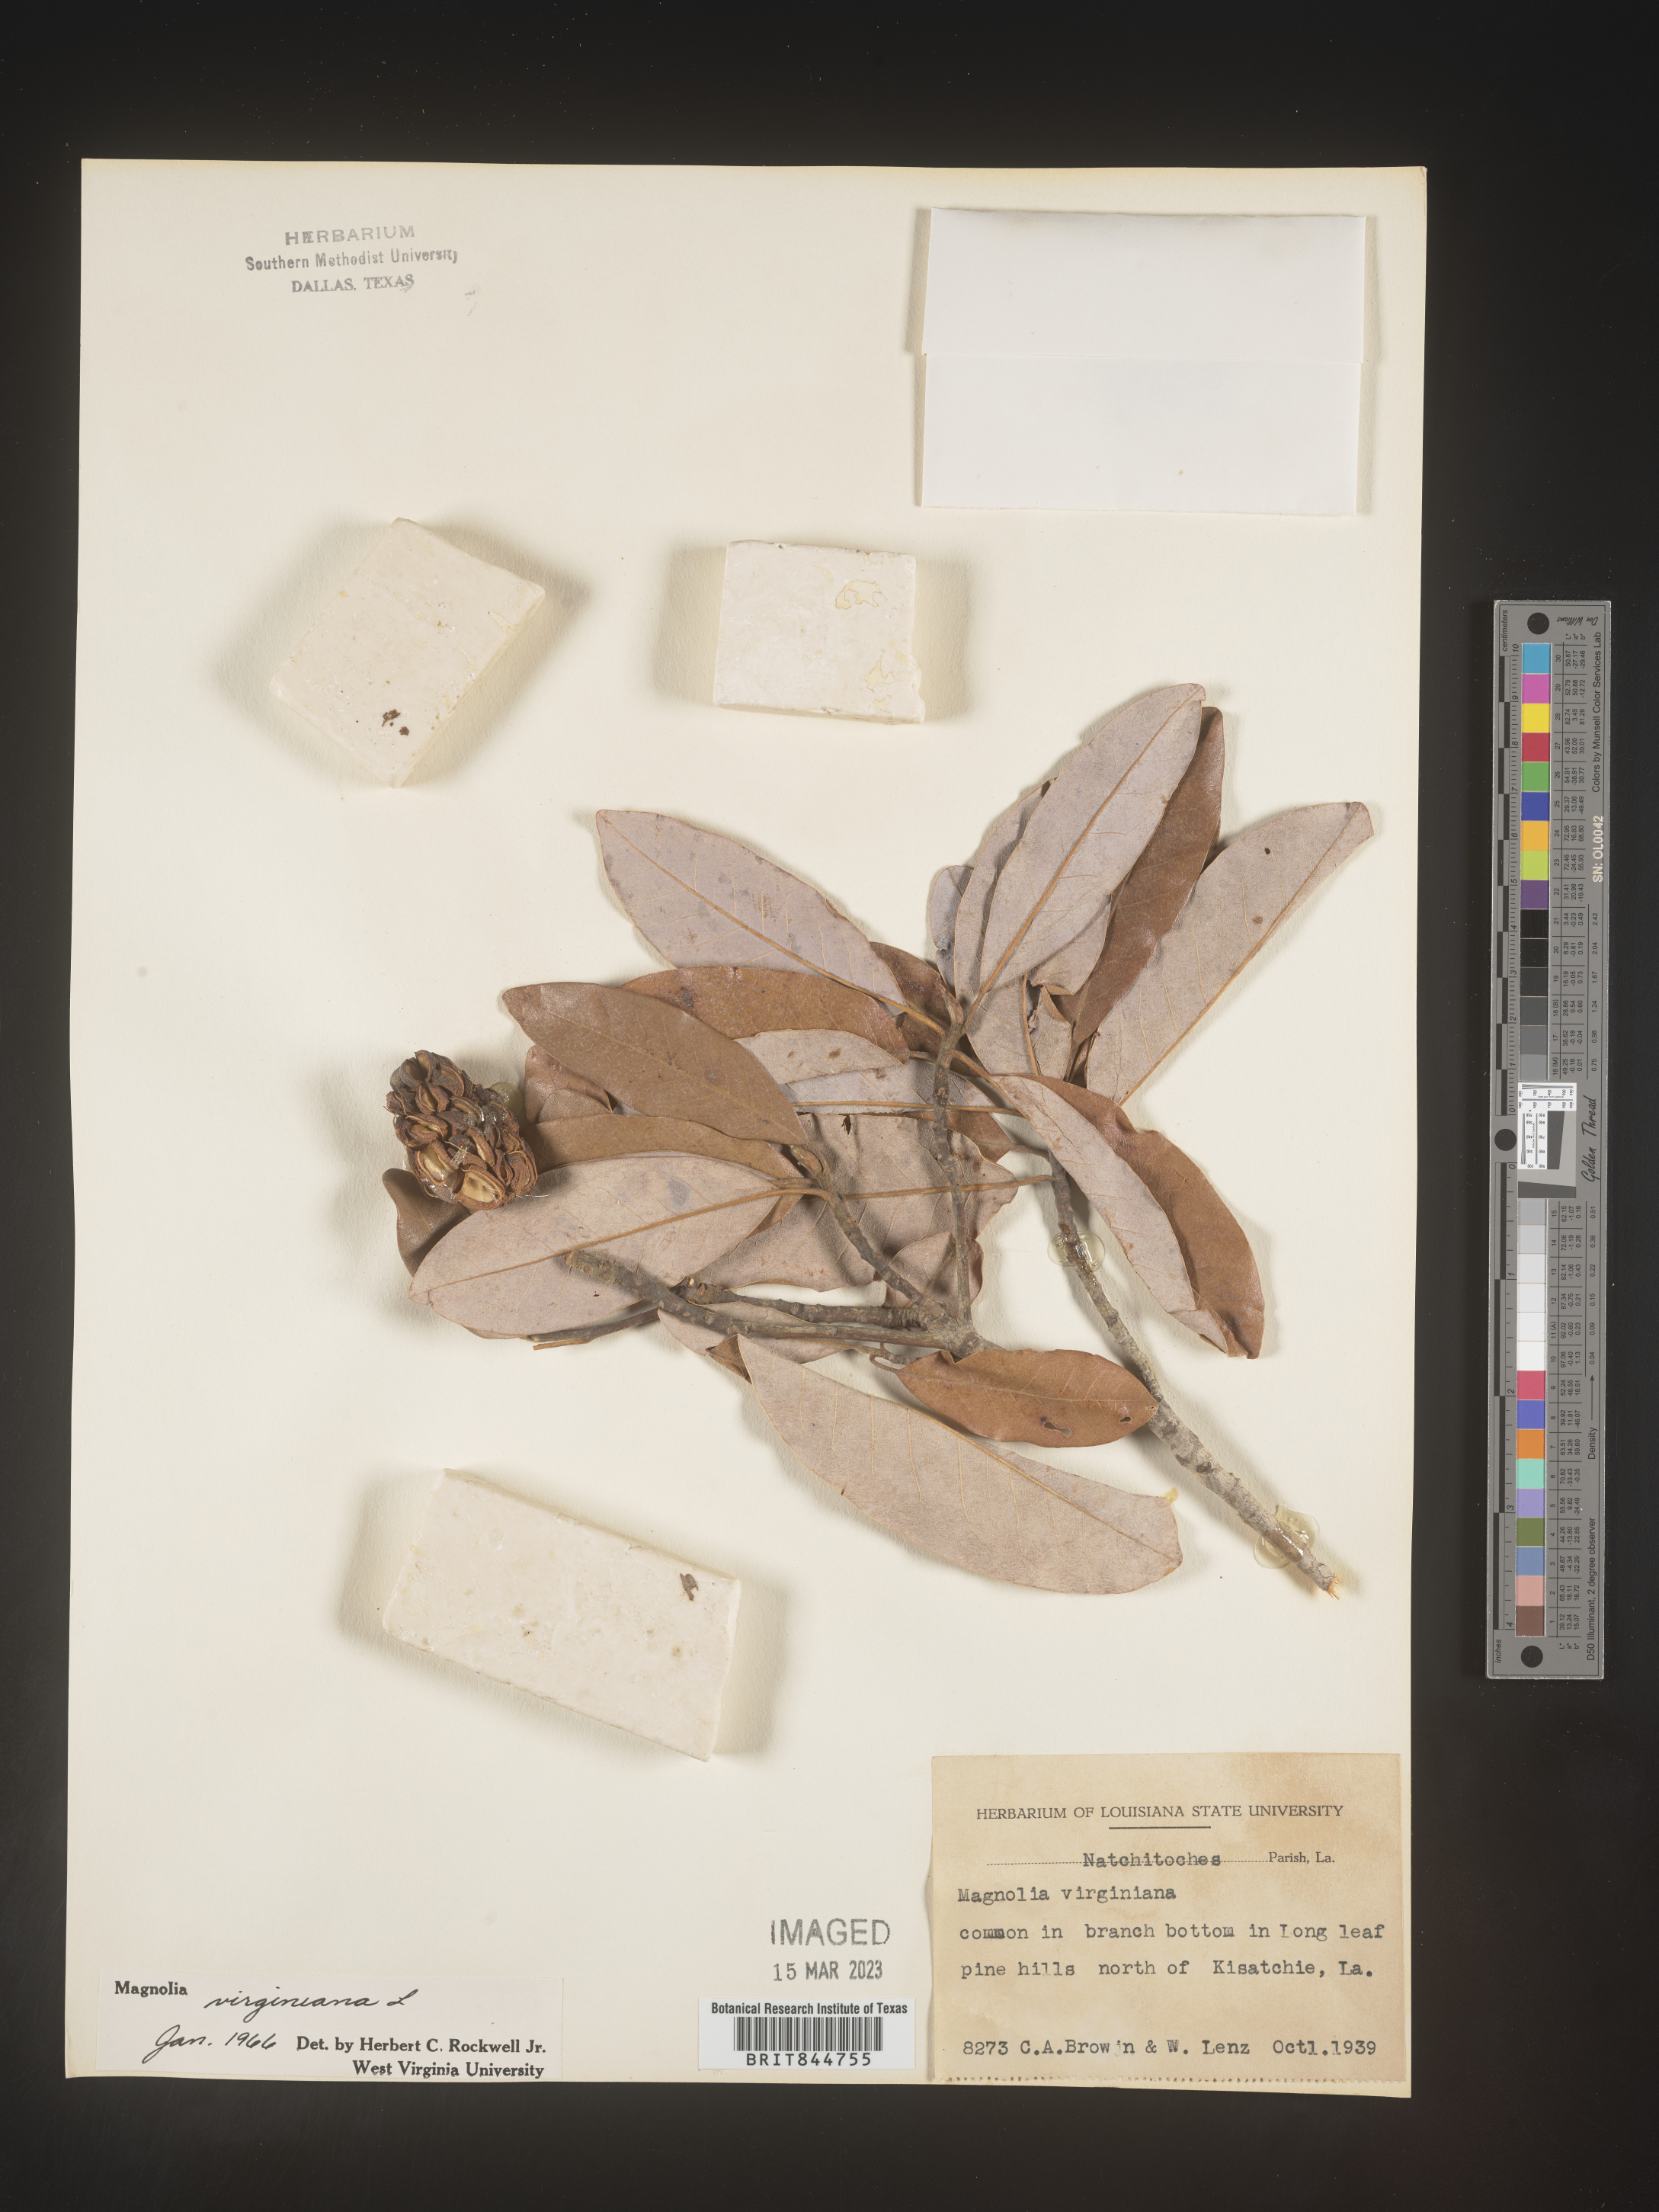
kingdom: Plantae
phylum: Tracheophyta
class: Magnoliopsida
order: Magnoliales
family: Magnoliaceae
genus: Magnolia
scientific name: Magnolia virginiana
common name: Swamp bay
